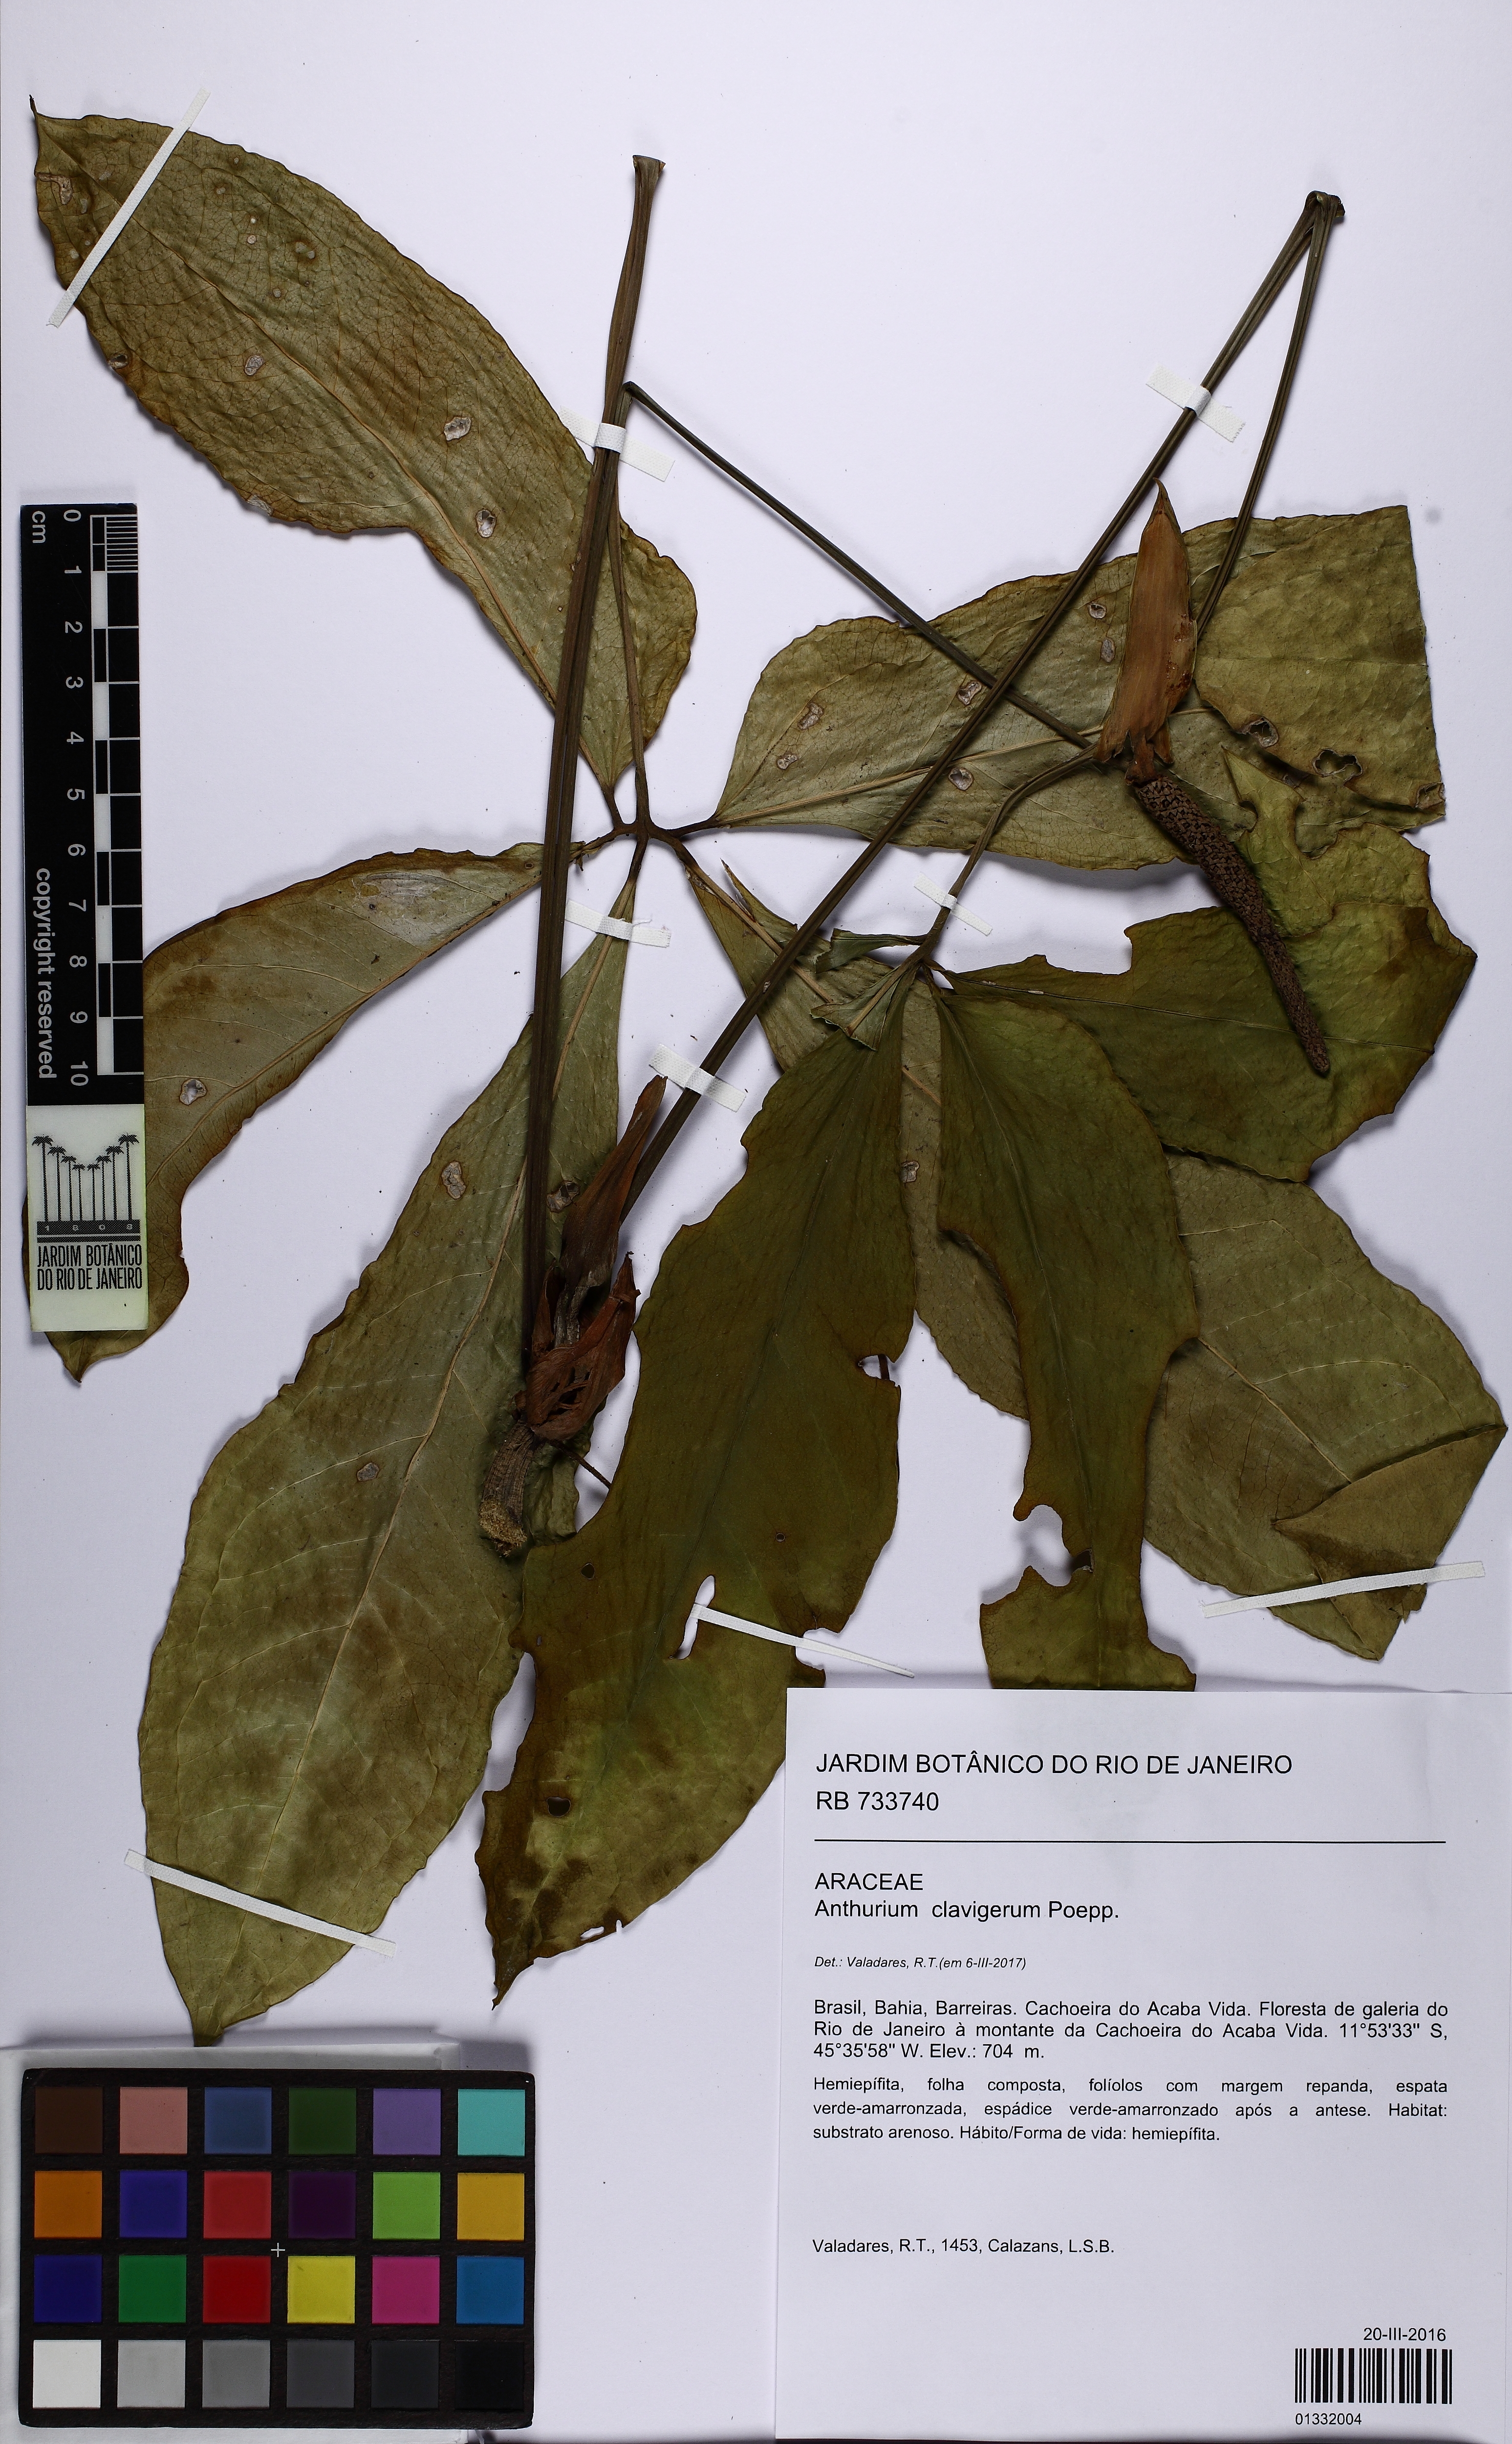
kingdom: Plantae
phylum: Tracheophyta
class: Liliopsida
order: Alismatales
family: Araceae
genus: Anthurium
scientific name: Anthurium clavigerum
